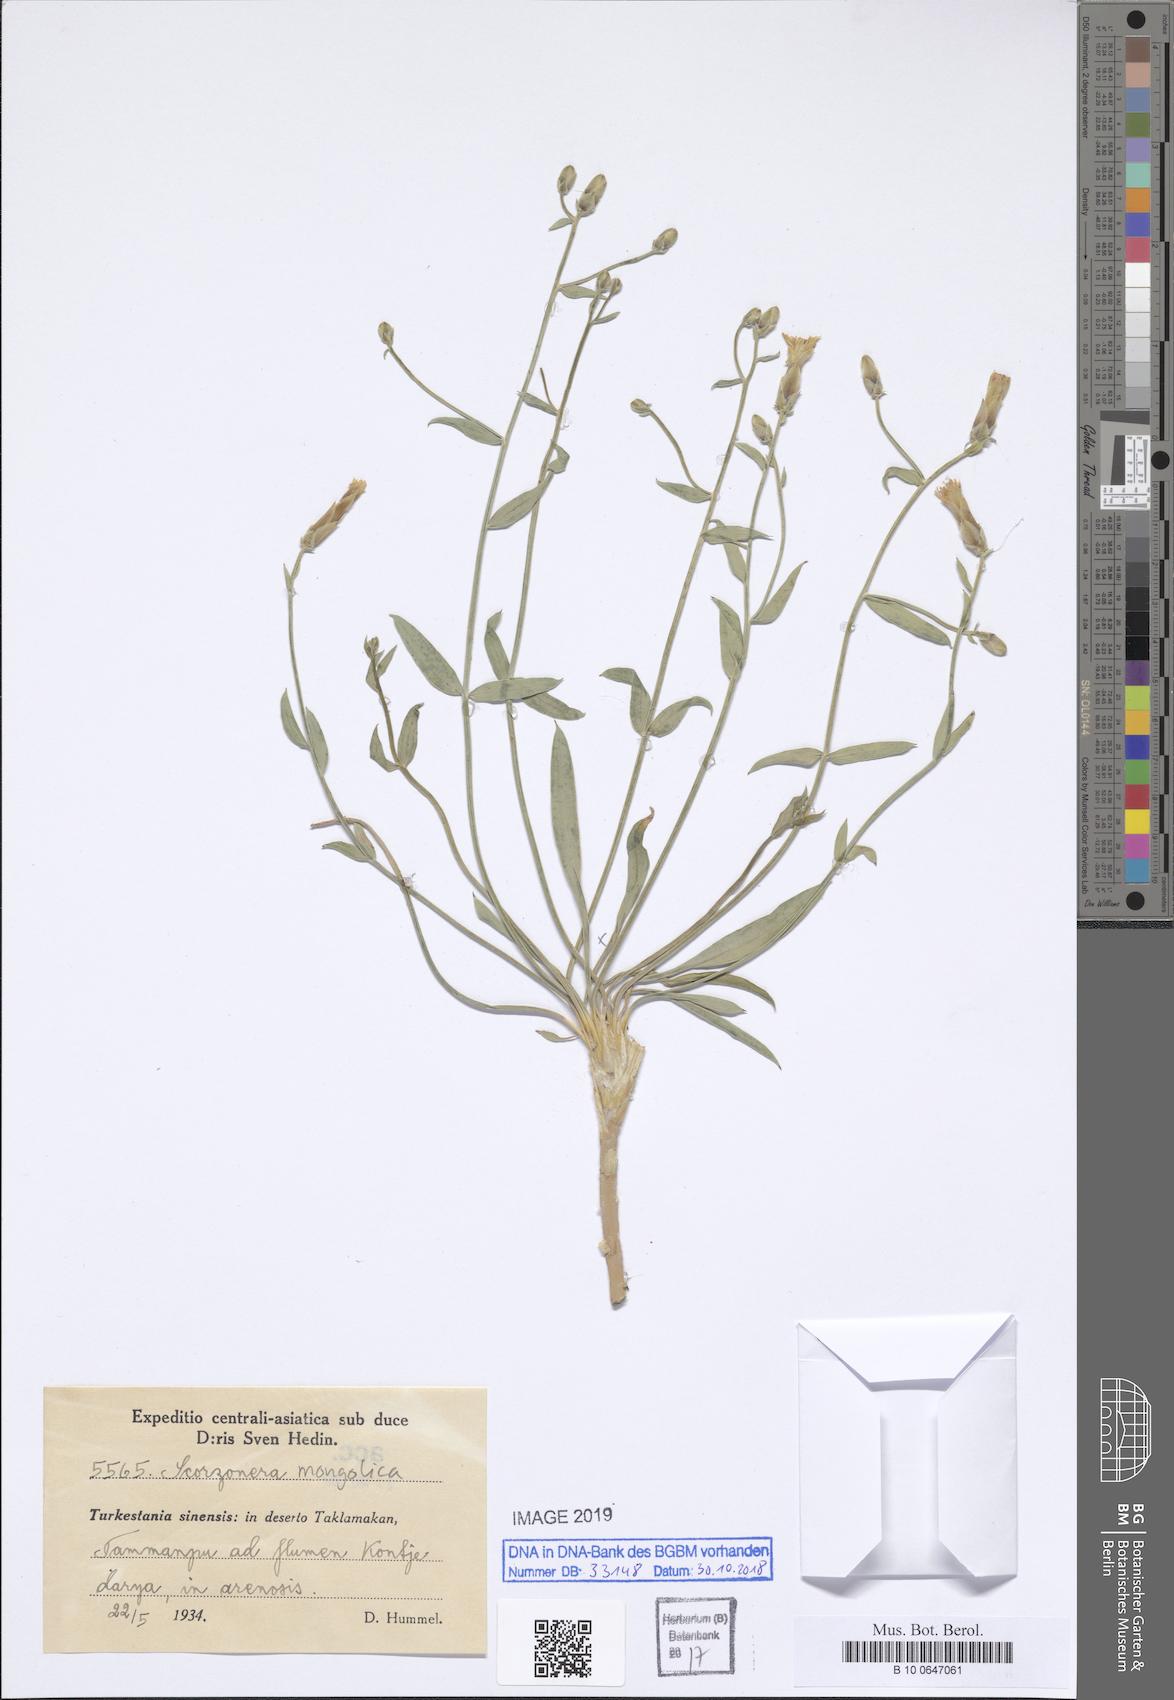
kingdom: Plantae
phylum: Tracheophyta
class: Magnoliopsida
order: Asterales
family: Asteraceae
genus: Takhtajaniantha
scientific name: Takhtajaniantha mongolica
